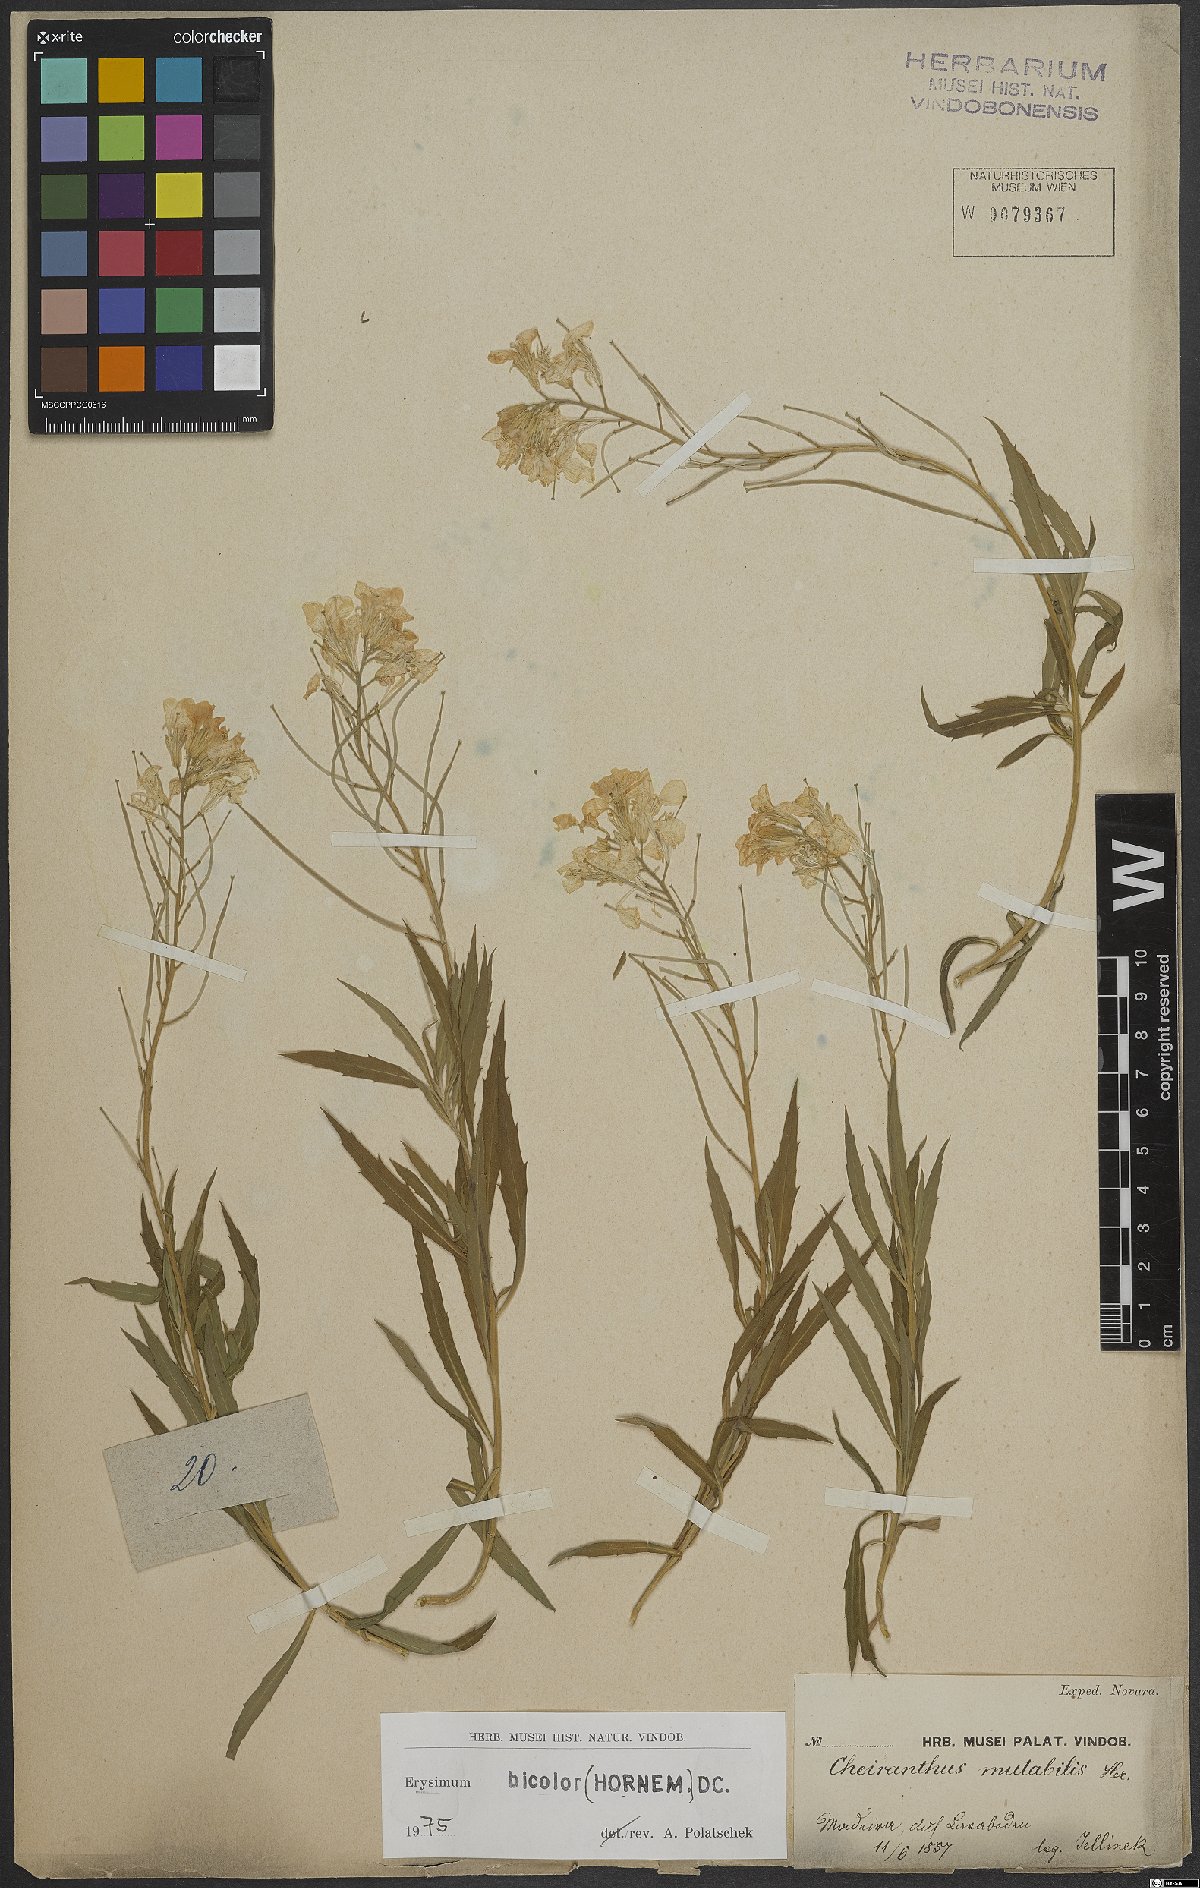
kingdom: Plantae
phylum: Tracheophyta
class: Magnoliopsida
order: Brassicales
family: Brassicaceae
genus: Erysimum
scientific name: Erysimum bicolor
